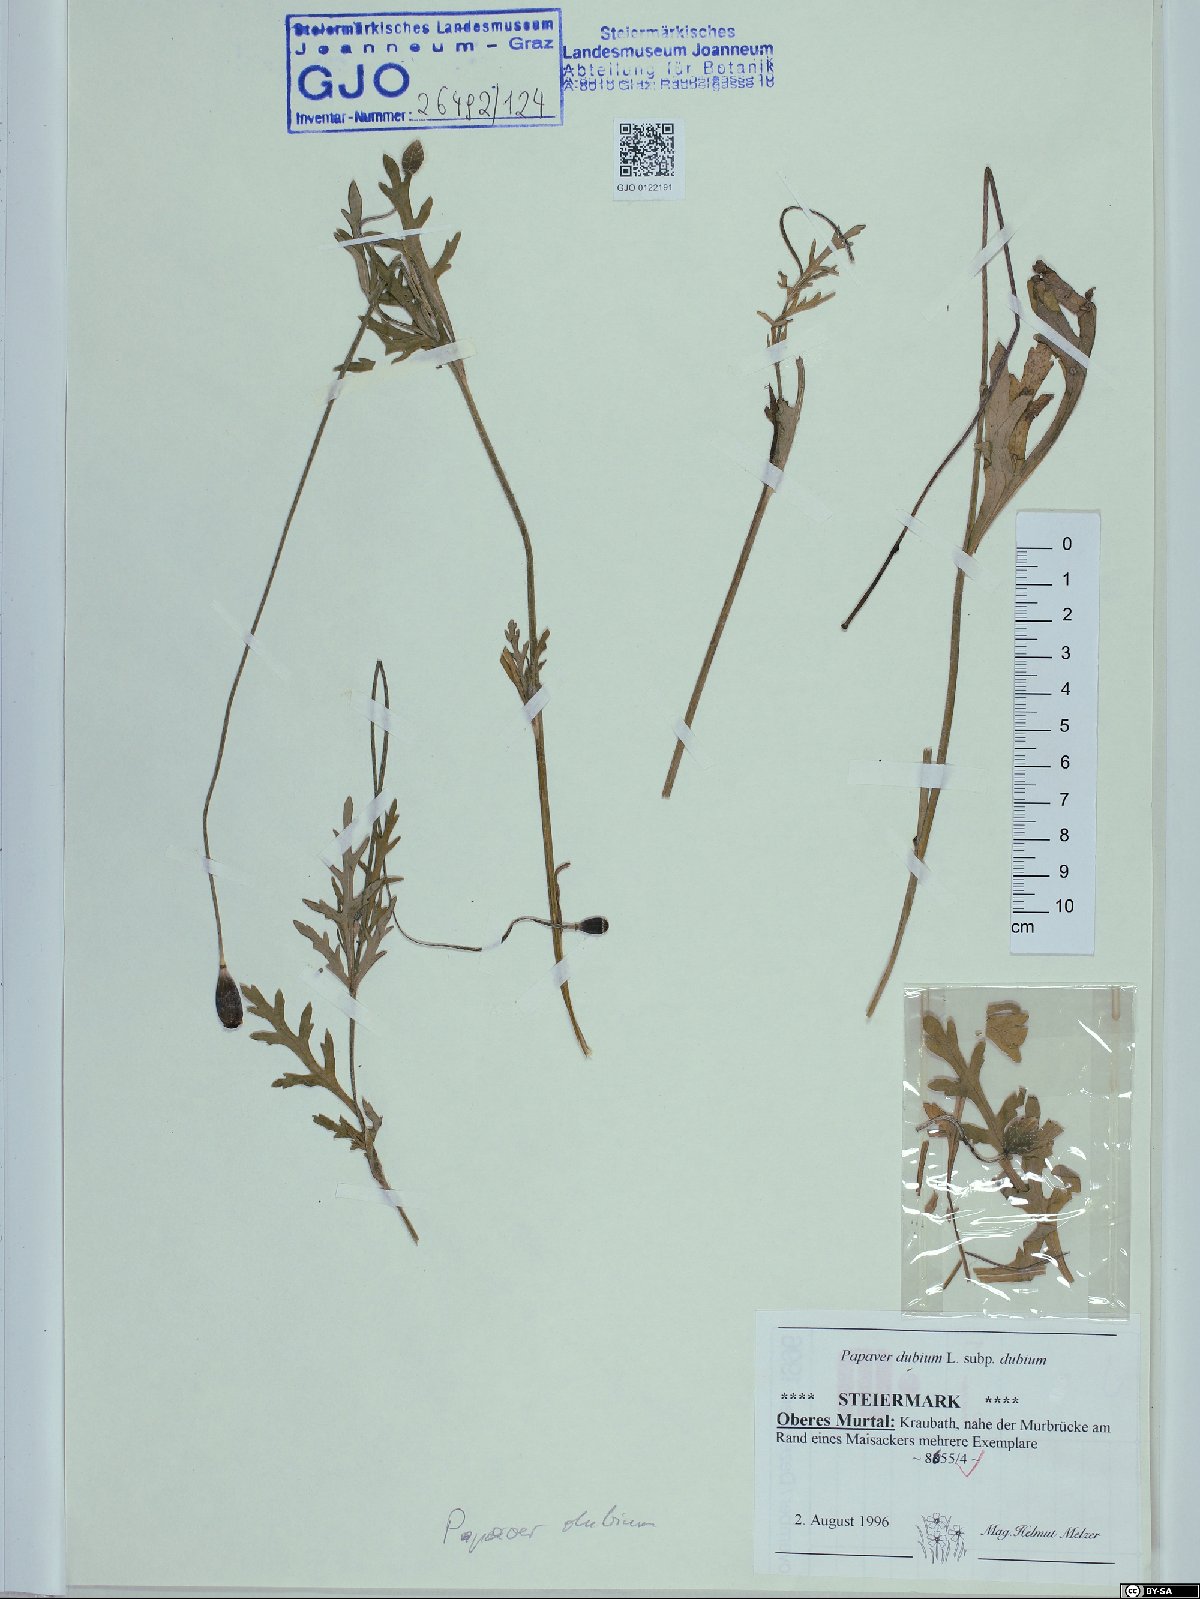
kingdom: Plantae
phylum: Tracheophyta
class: Magnoliopsida
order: Ranunculales
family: Papaveraceae
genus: Papaver
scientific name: Papaver dubium
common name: Long-headed poppy
